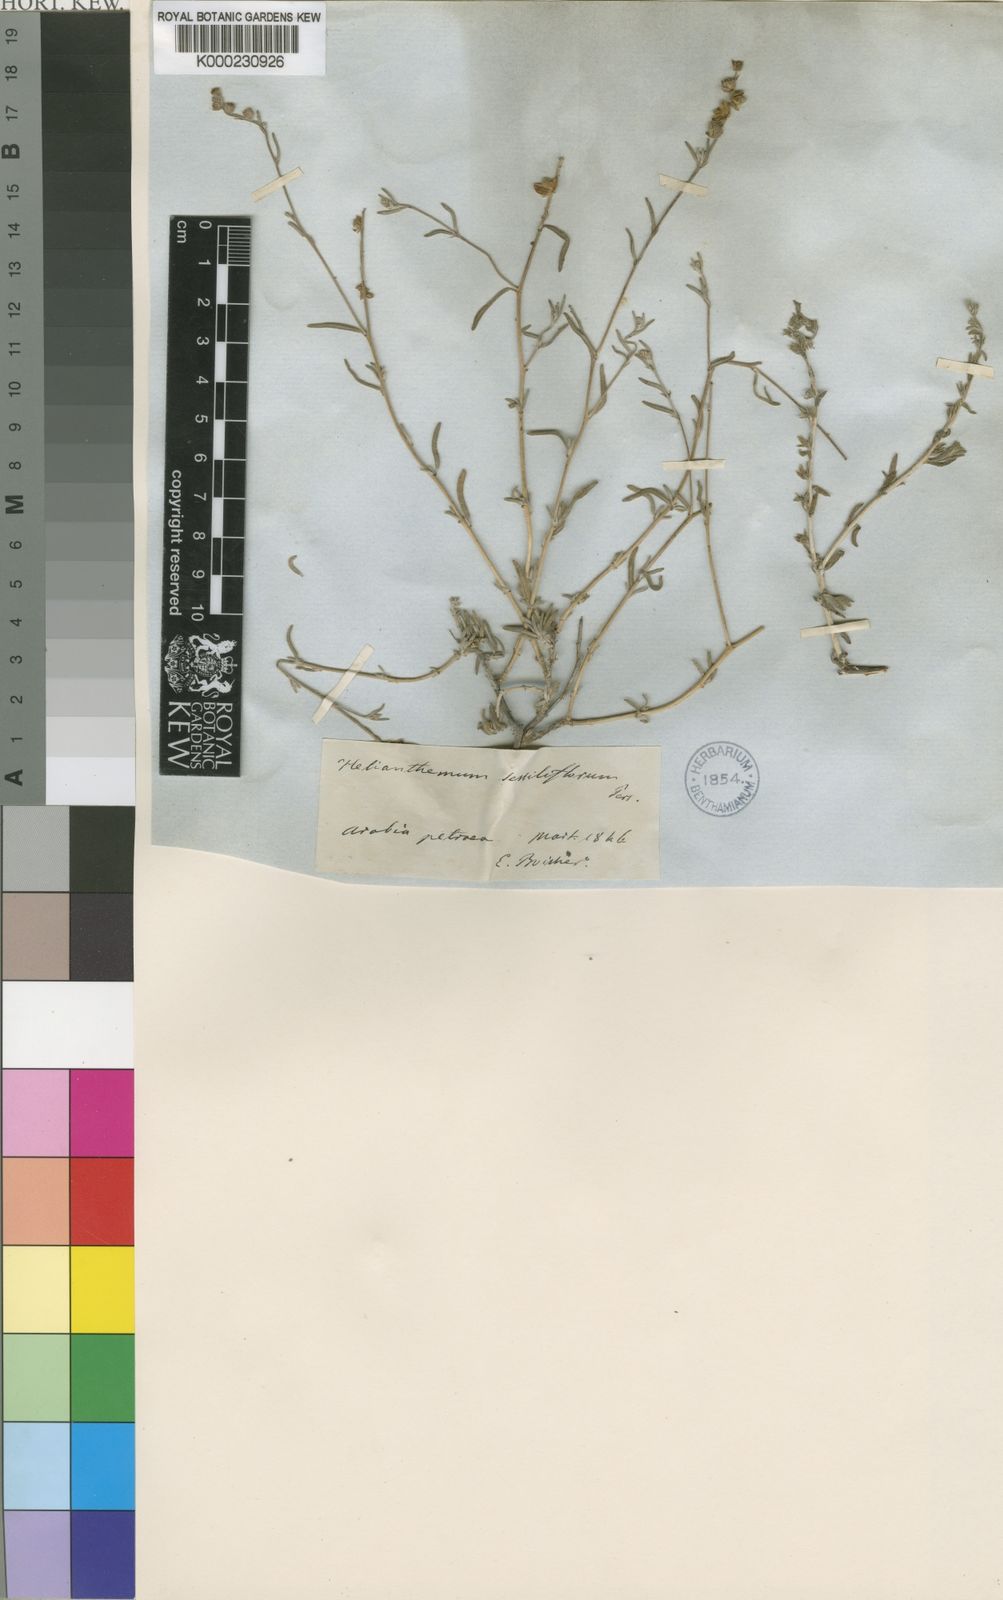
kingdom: Plantae
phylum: Tracheophyta
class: Magnoliopsida
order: Malvales
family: Cistaceae
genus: Helianthemum
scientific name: Helianthemum lippii
